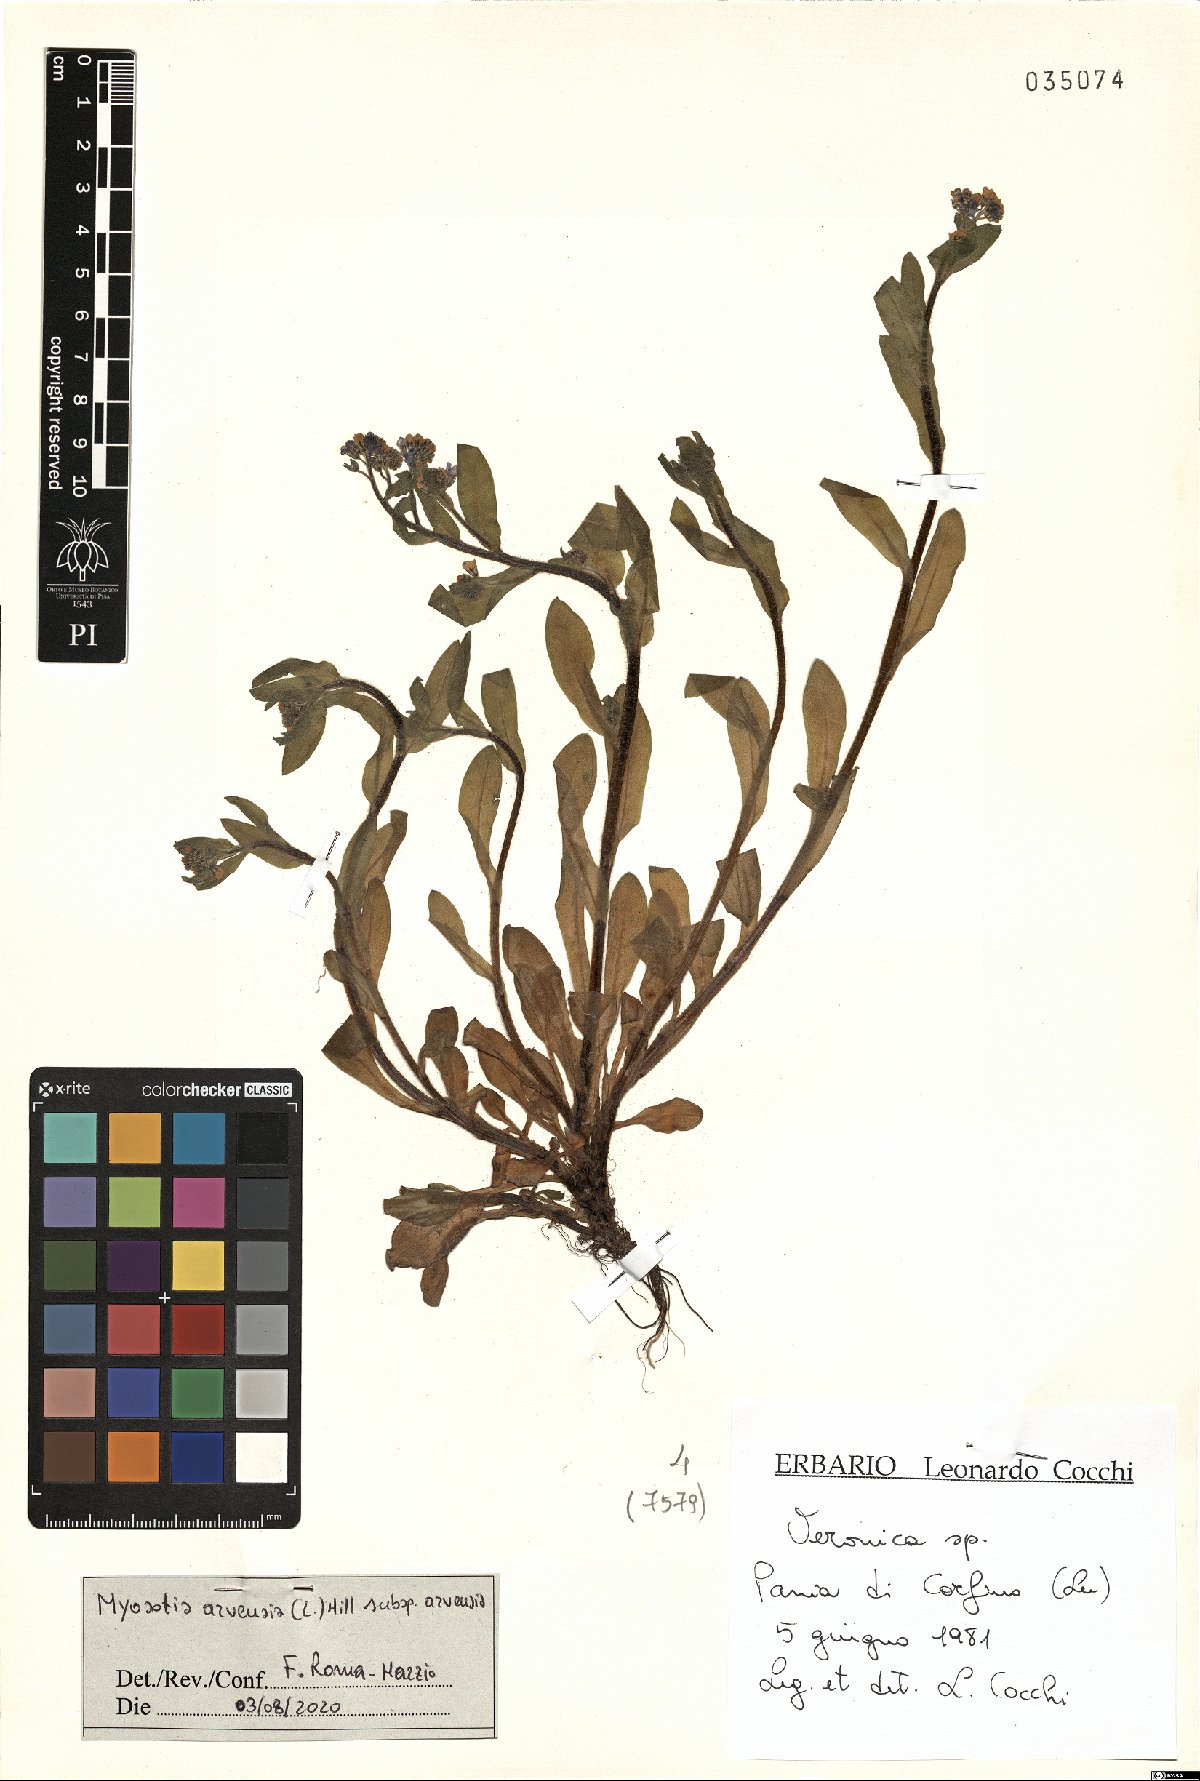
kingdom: Plantae
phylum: Tracheophyta
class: Magnoliopsida
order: Boraginales
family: Boraginaceae
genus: Myosotis
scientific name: Myosotis arvensis
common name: Field forget-me-not
